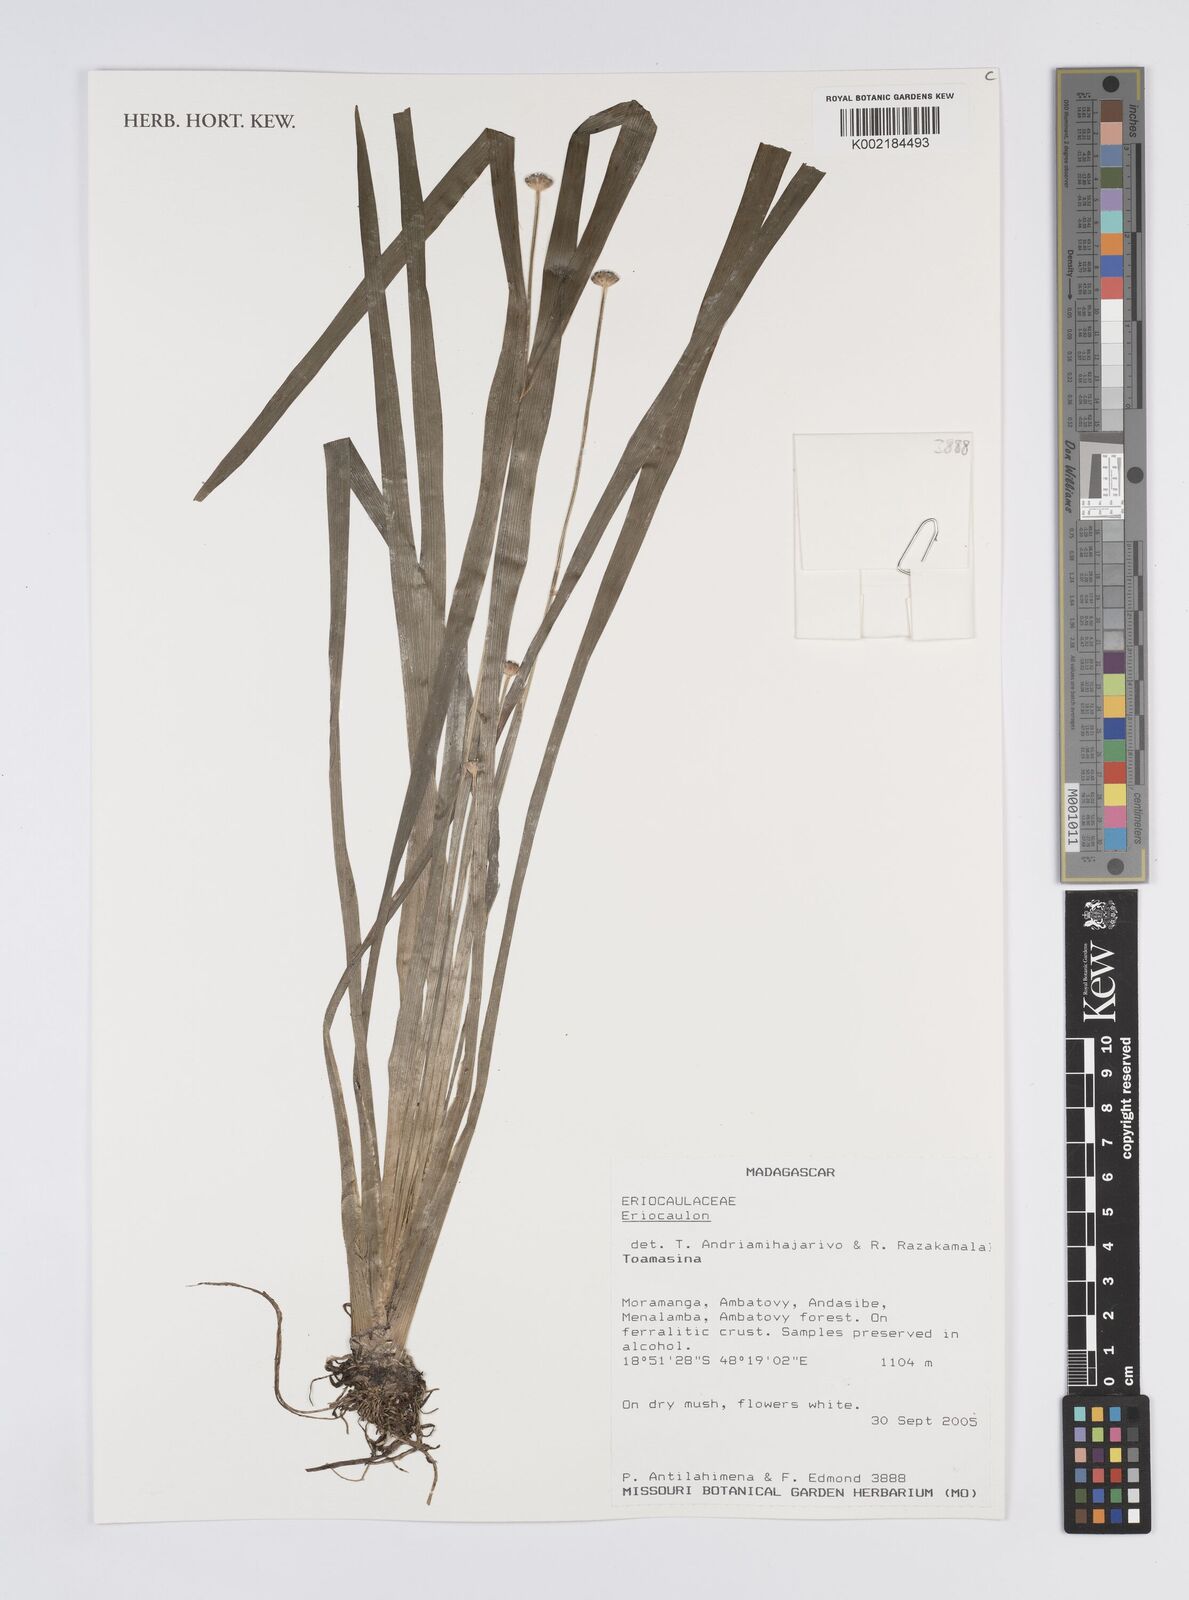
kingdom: Plantae
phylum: Tracheophyta
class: Liliopsida
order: Poales
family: Eriocaulaceae
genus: Eriocaulon
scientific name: Eriocaulon
